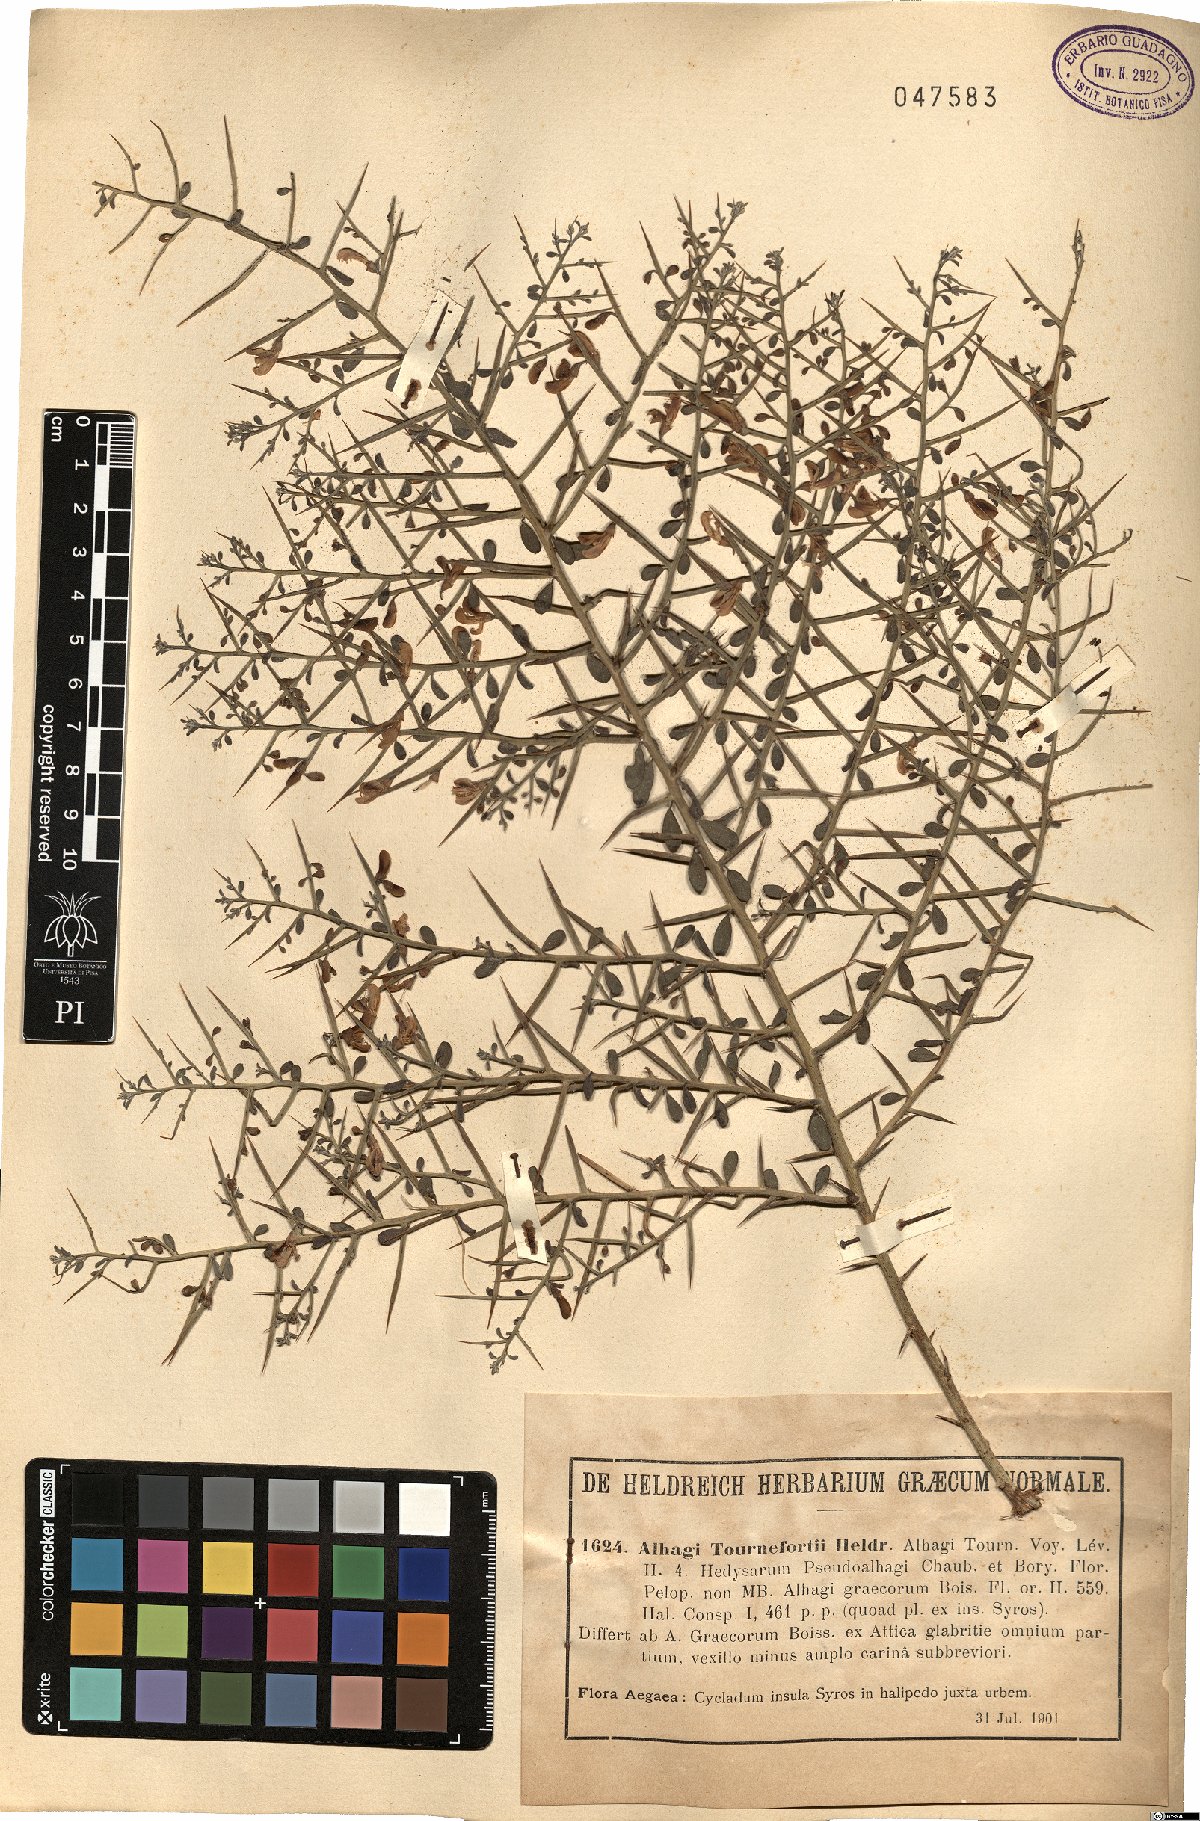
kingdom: Plantae
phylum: Tracheophyta
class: Magnoliopsida
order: Fabales
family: Fabaceae
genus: Alhagi
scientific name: Alhagi graecorum
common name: Persian mannaplant
